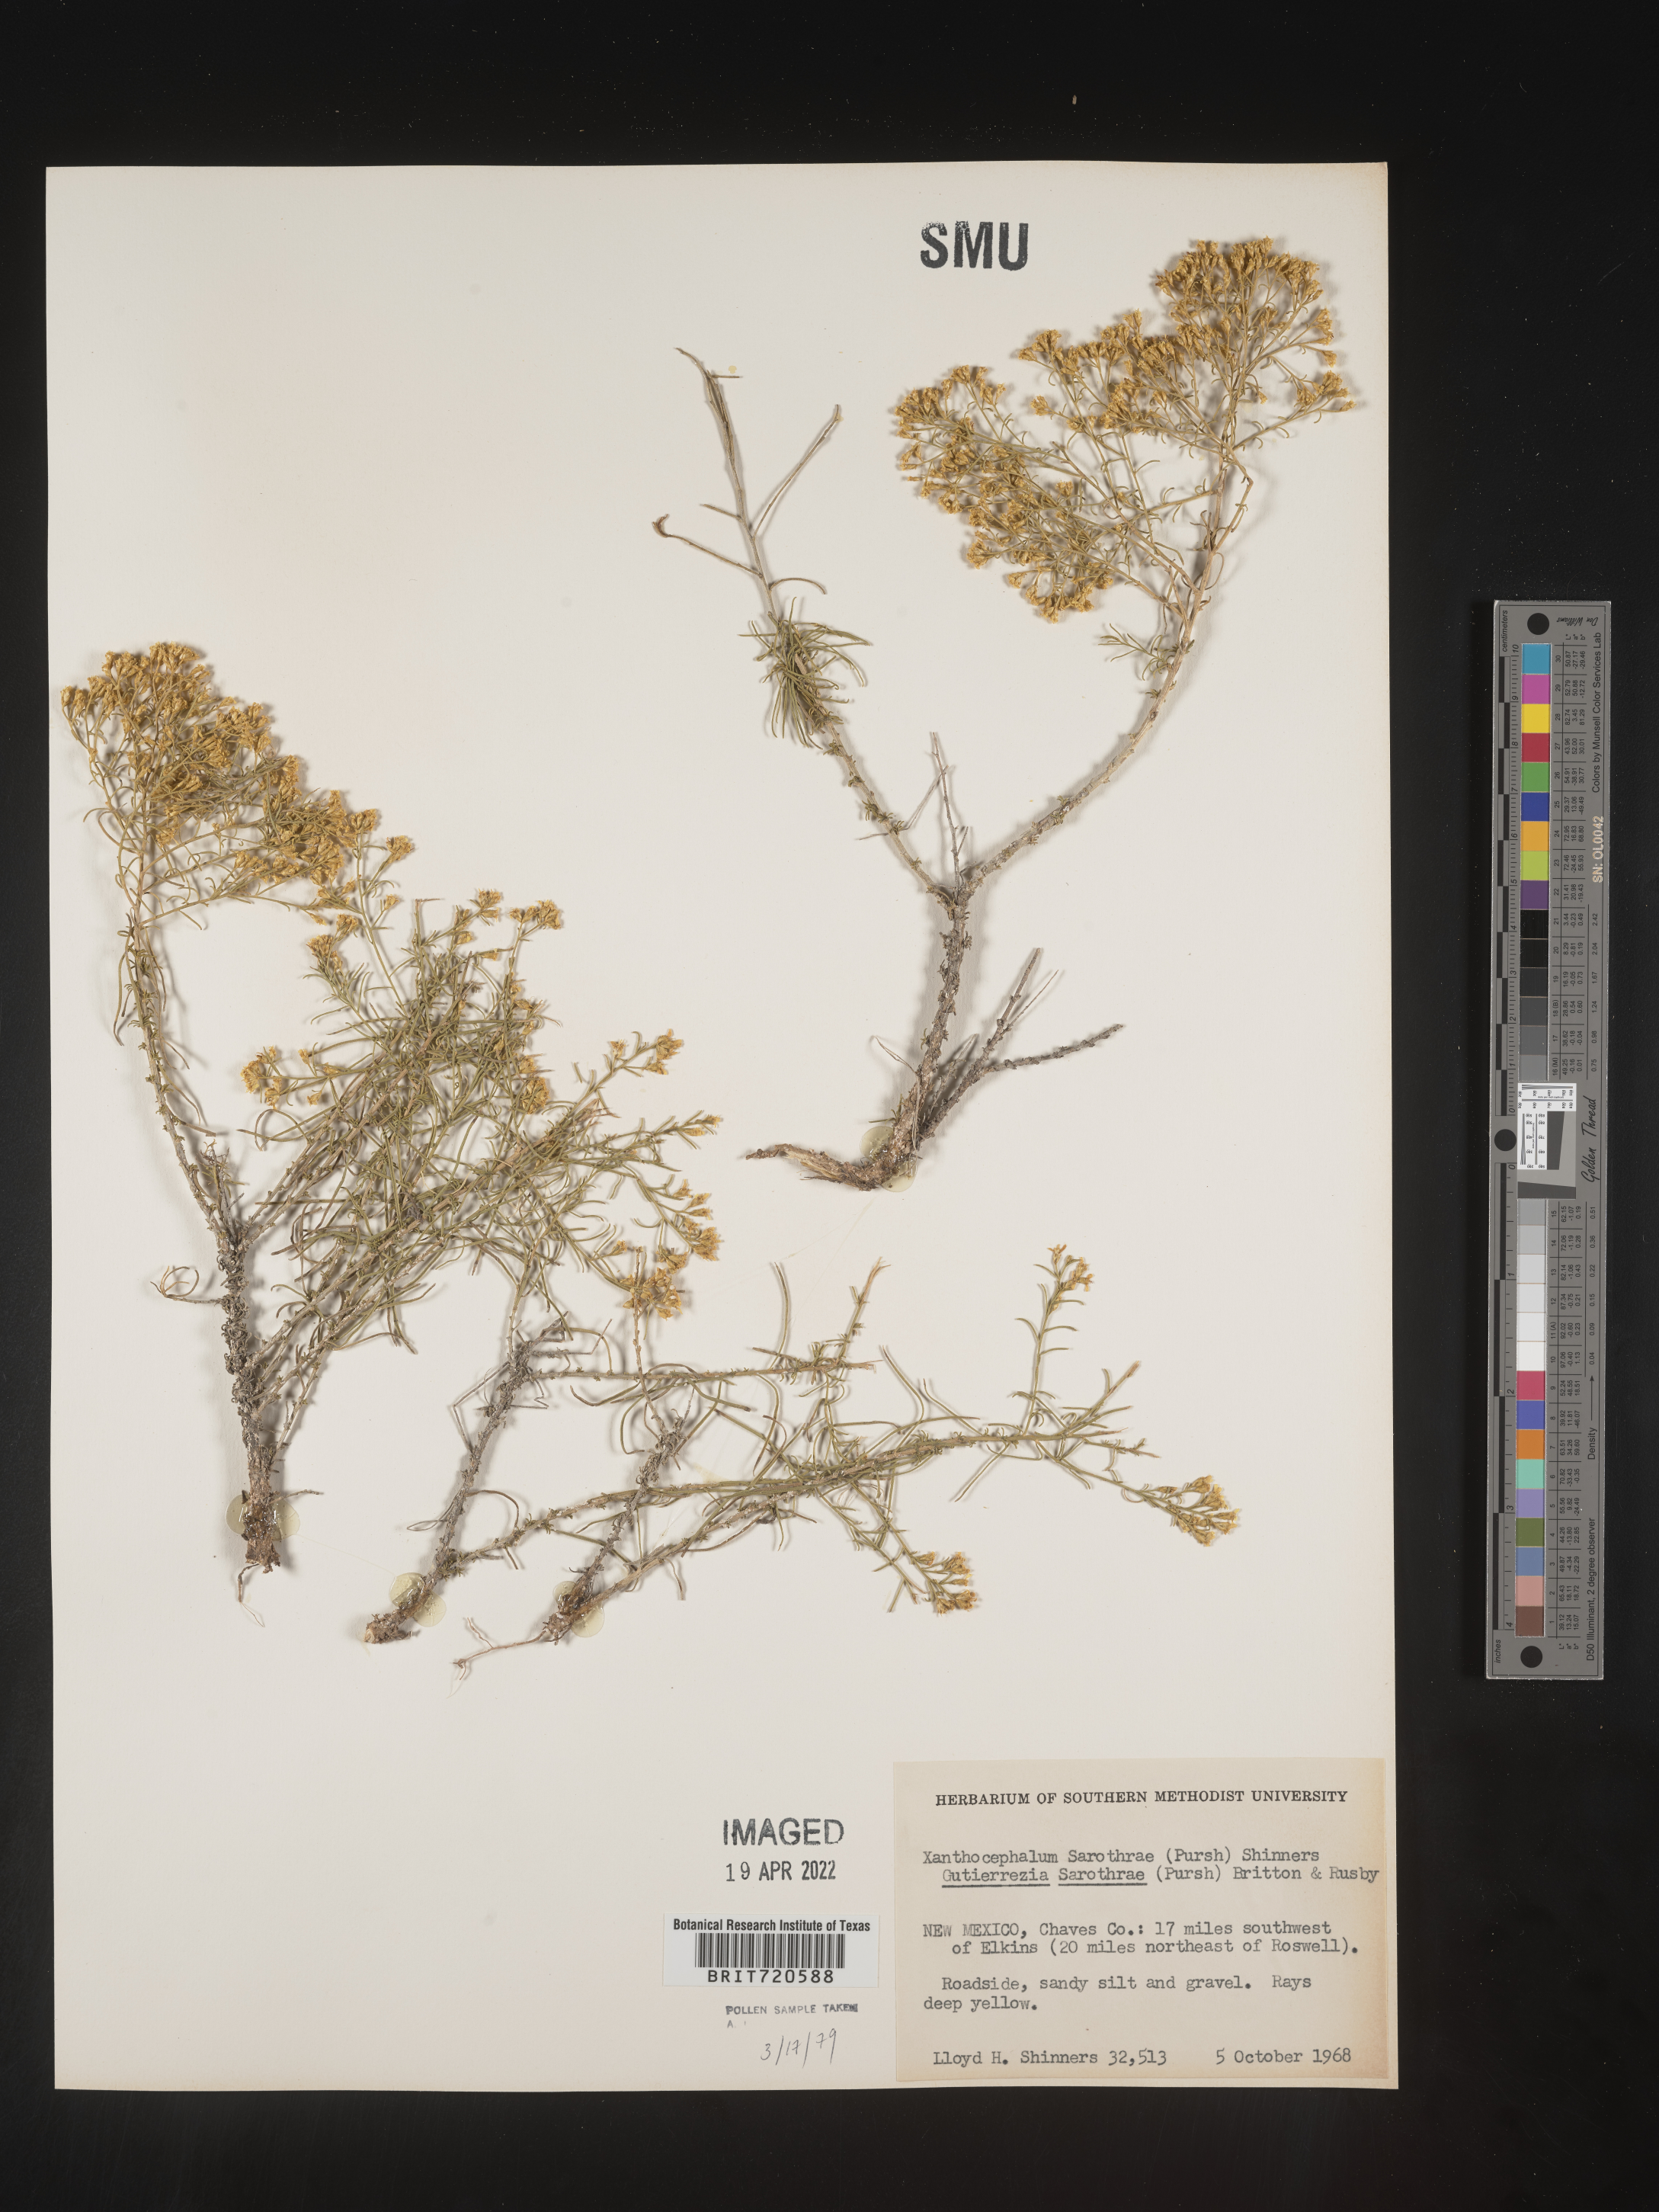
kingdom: Plantae
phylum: Tracheophyta
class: Magnoliopsida
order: Asterales
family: Asteraceae
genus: Gutierrezia
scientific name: Gutierrezia sarothrae
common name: Broom snakeweed
